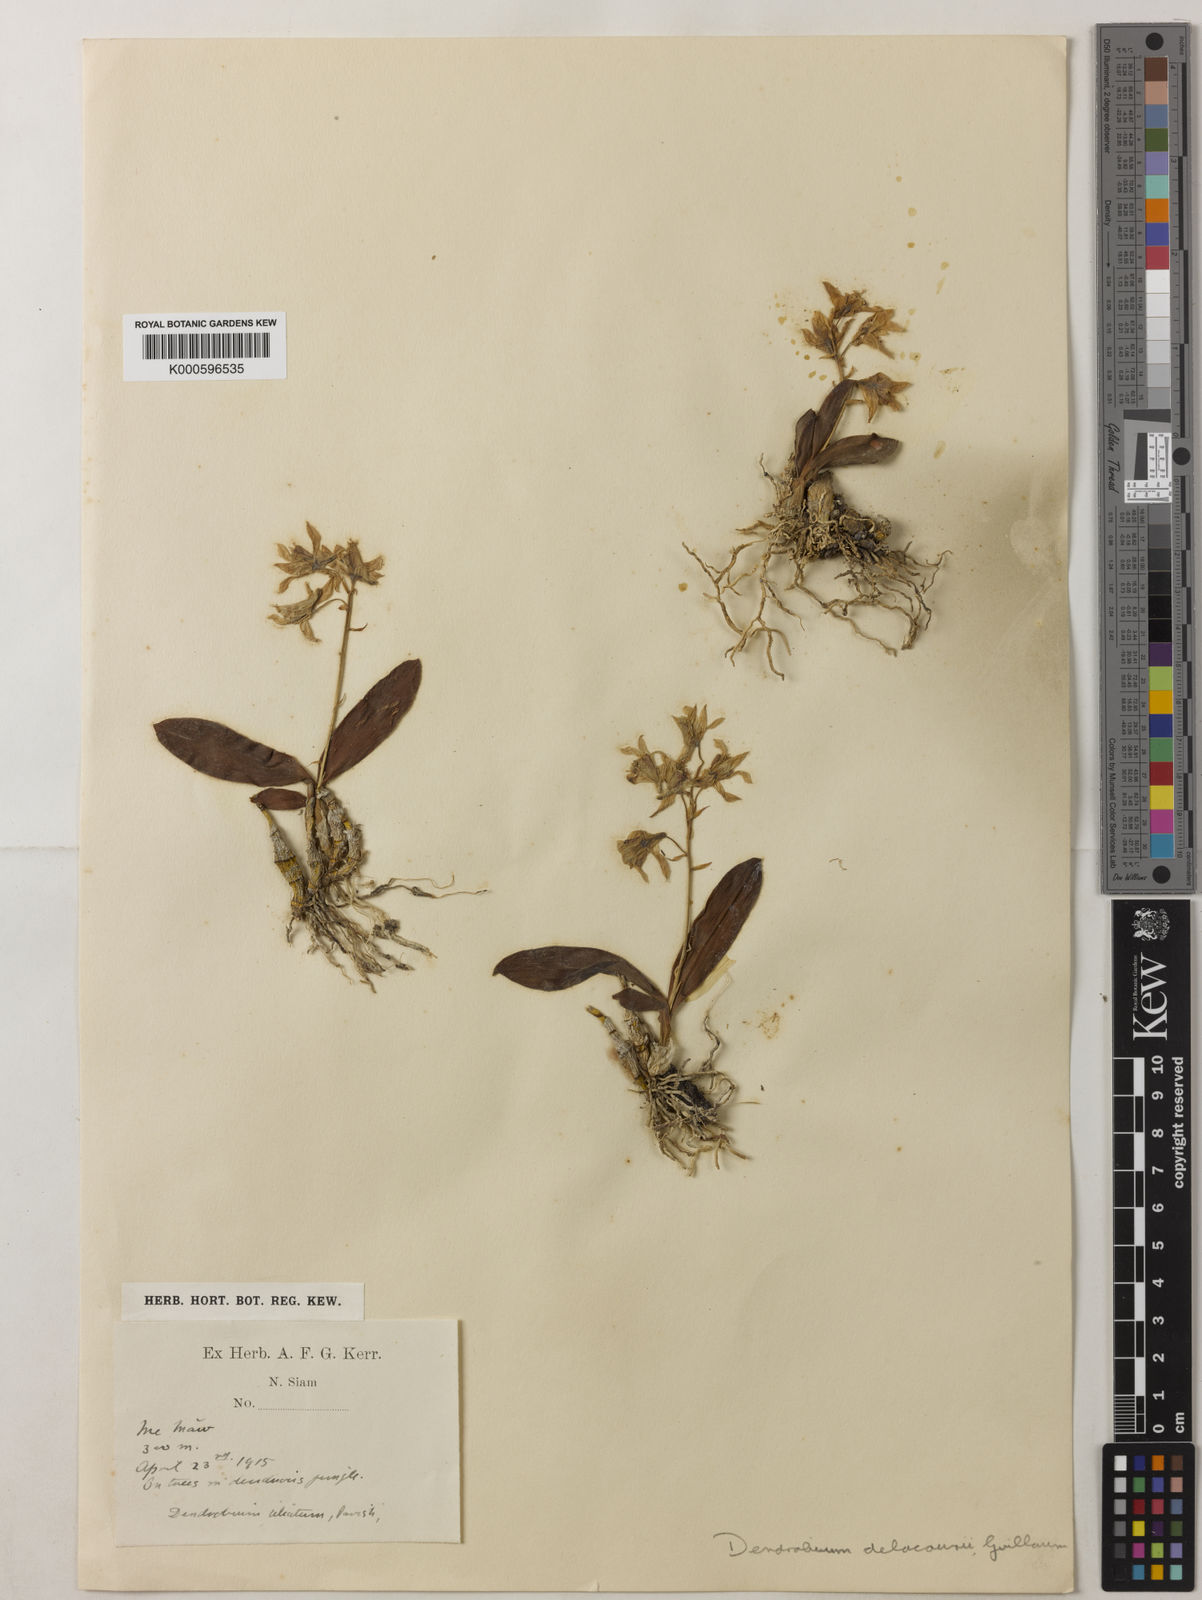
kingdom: Plantae
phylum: Tracheophyta
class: Liliopsida
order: Asparagales
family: Orchidaceae
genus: Dendrobium
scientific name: Dendrobium delacourii
